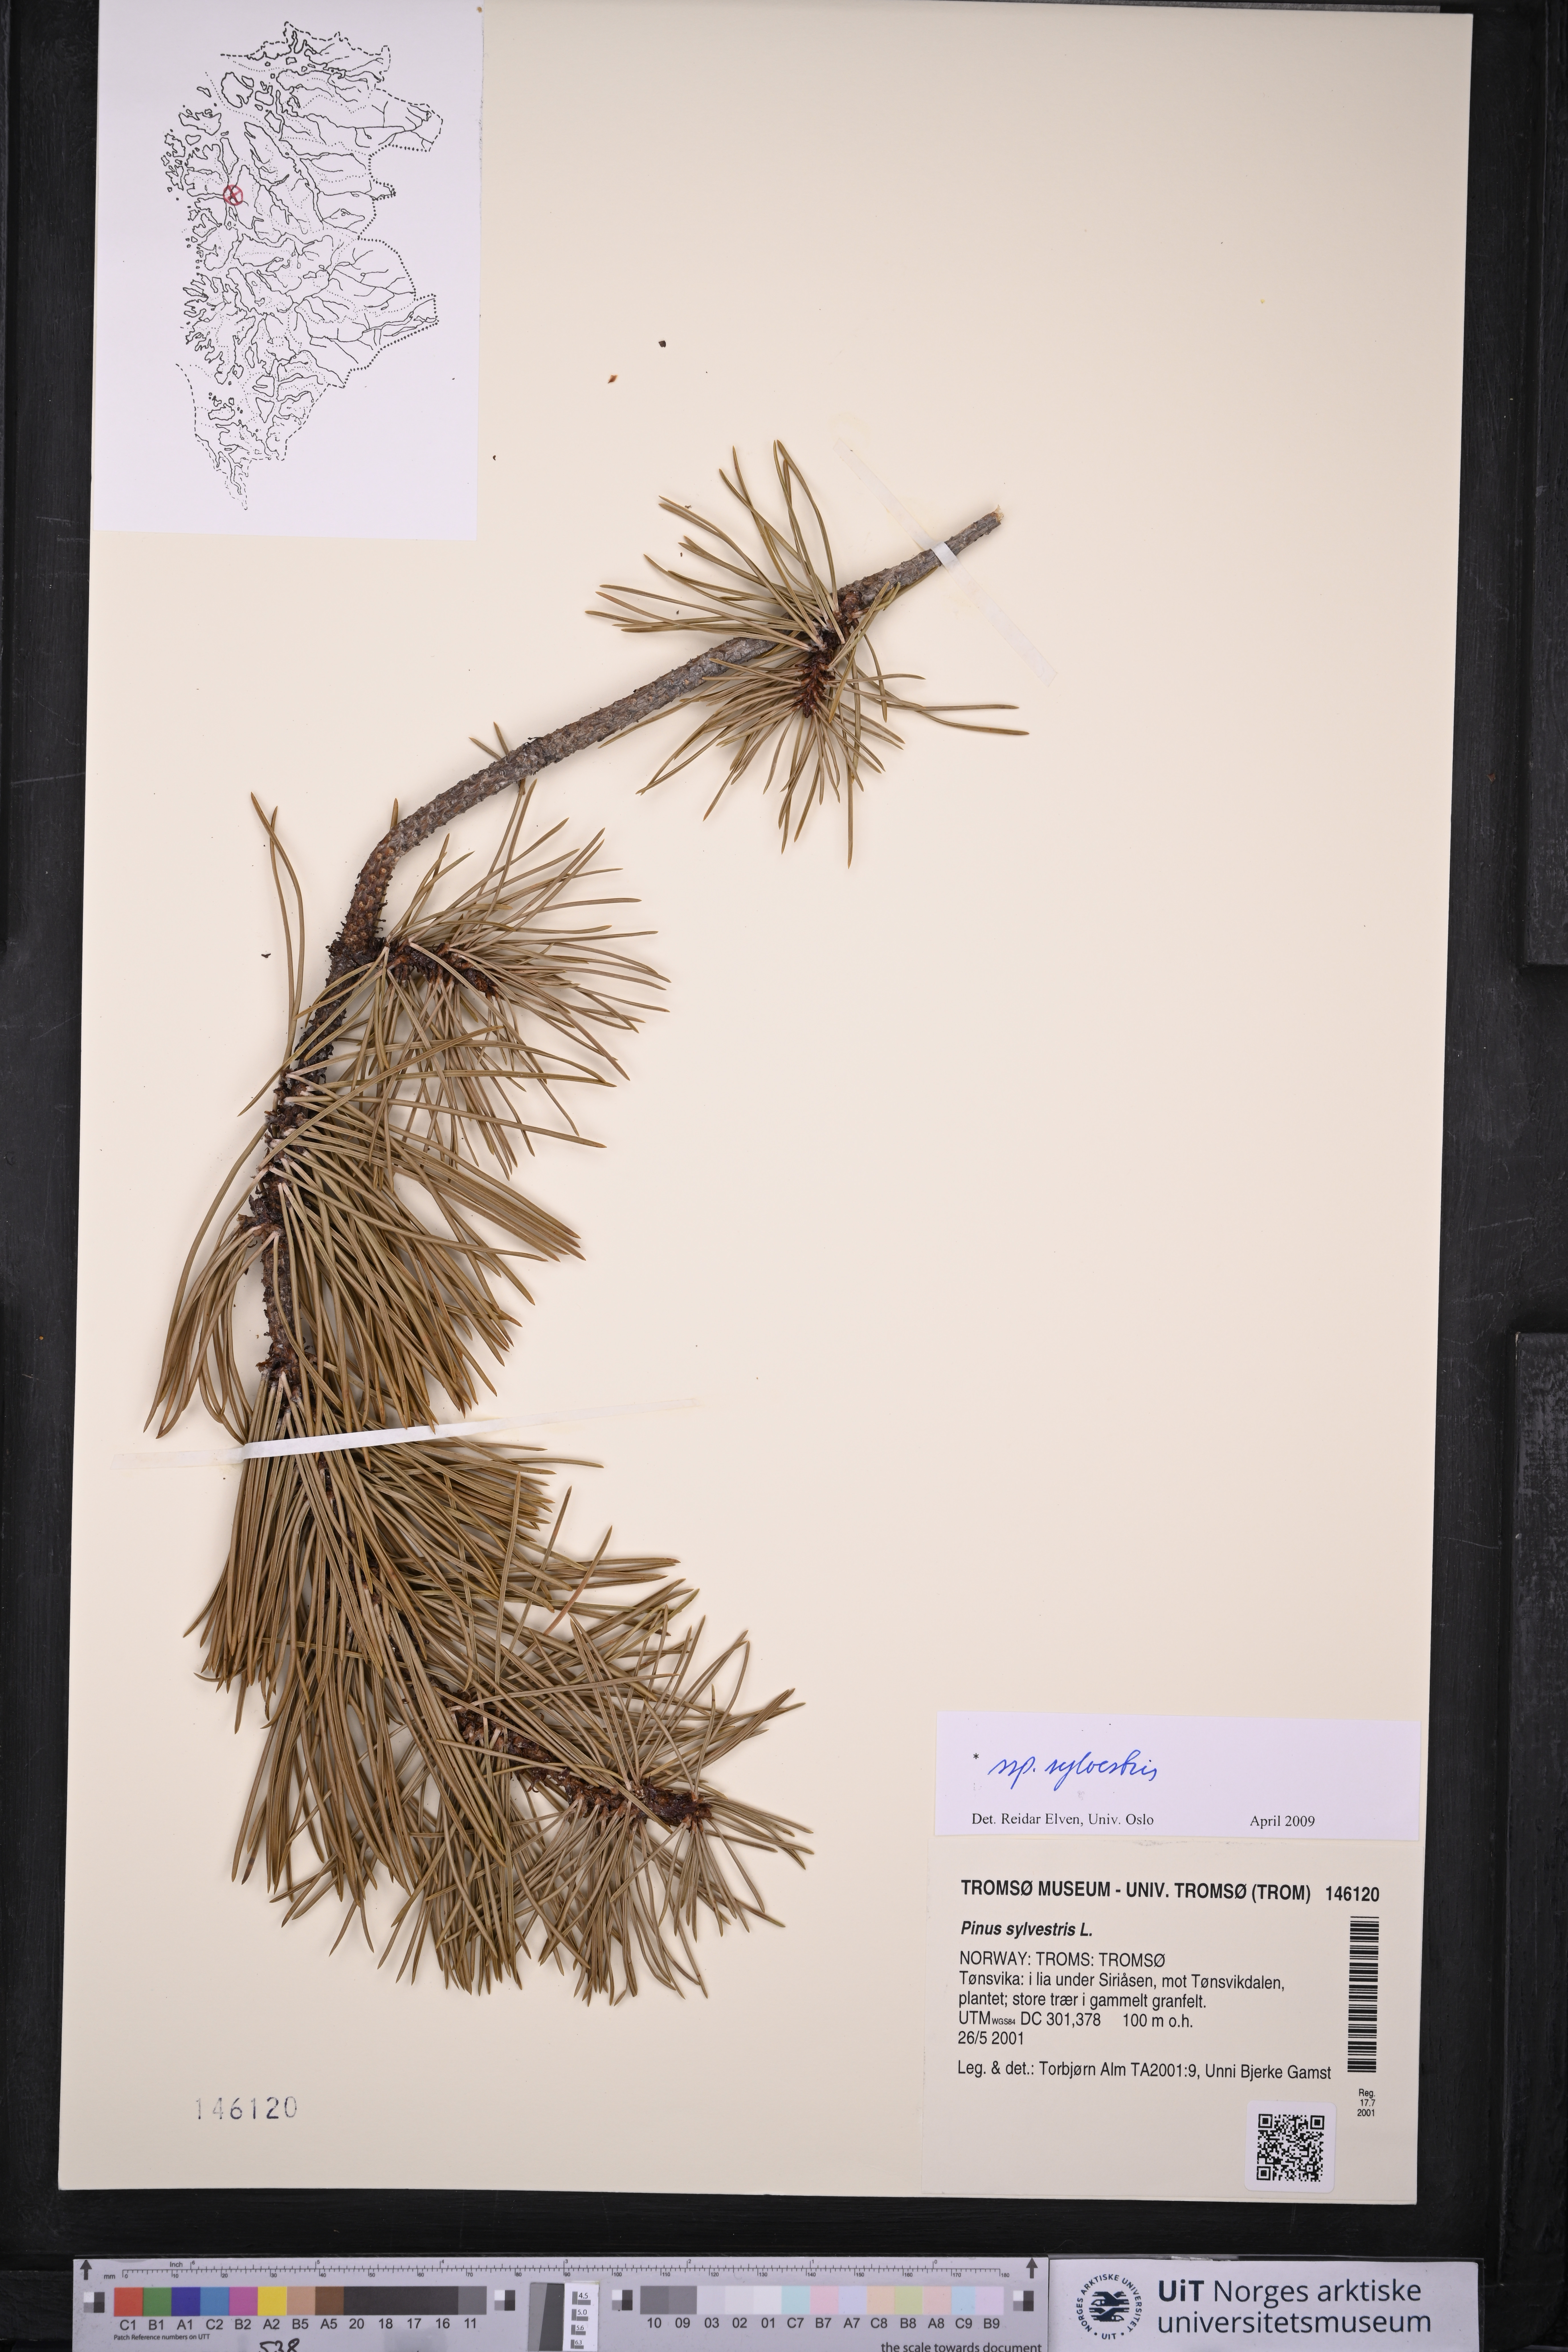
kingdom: Plantae
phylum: Tracheophyta
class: Pinopsida
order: Pinales
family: Pinaceae
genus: Pinus
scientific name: Pinus sylvestris
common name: Scots pine
